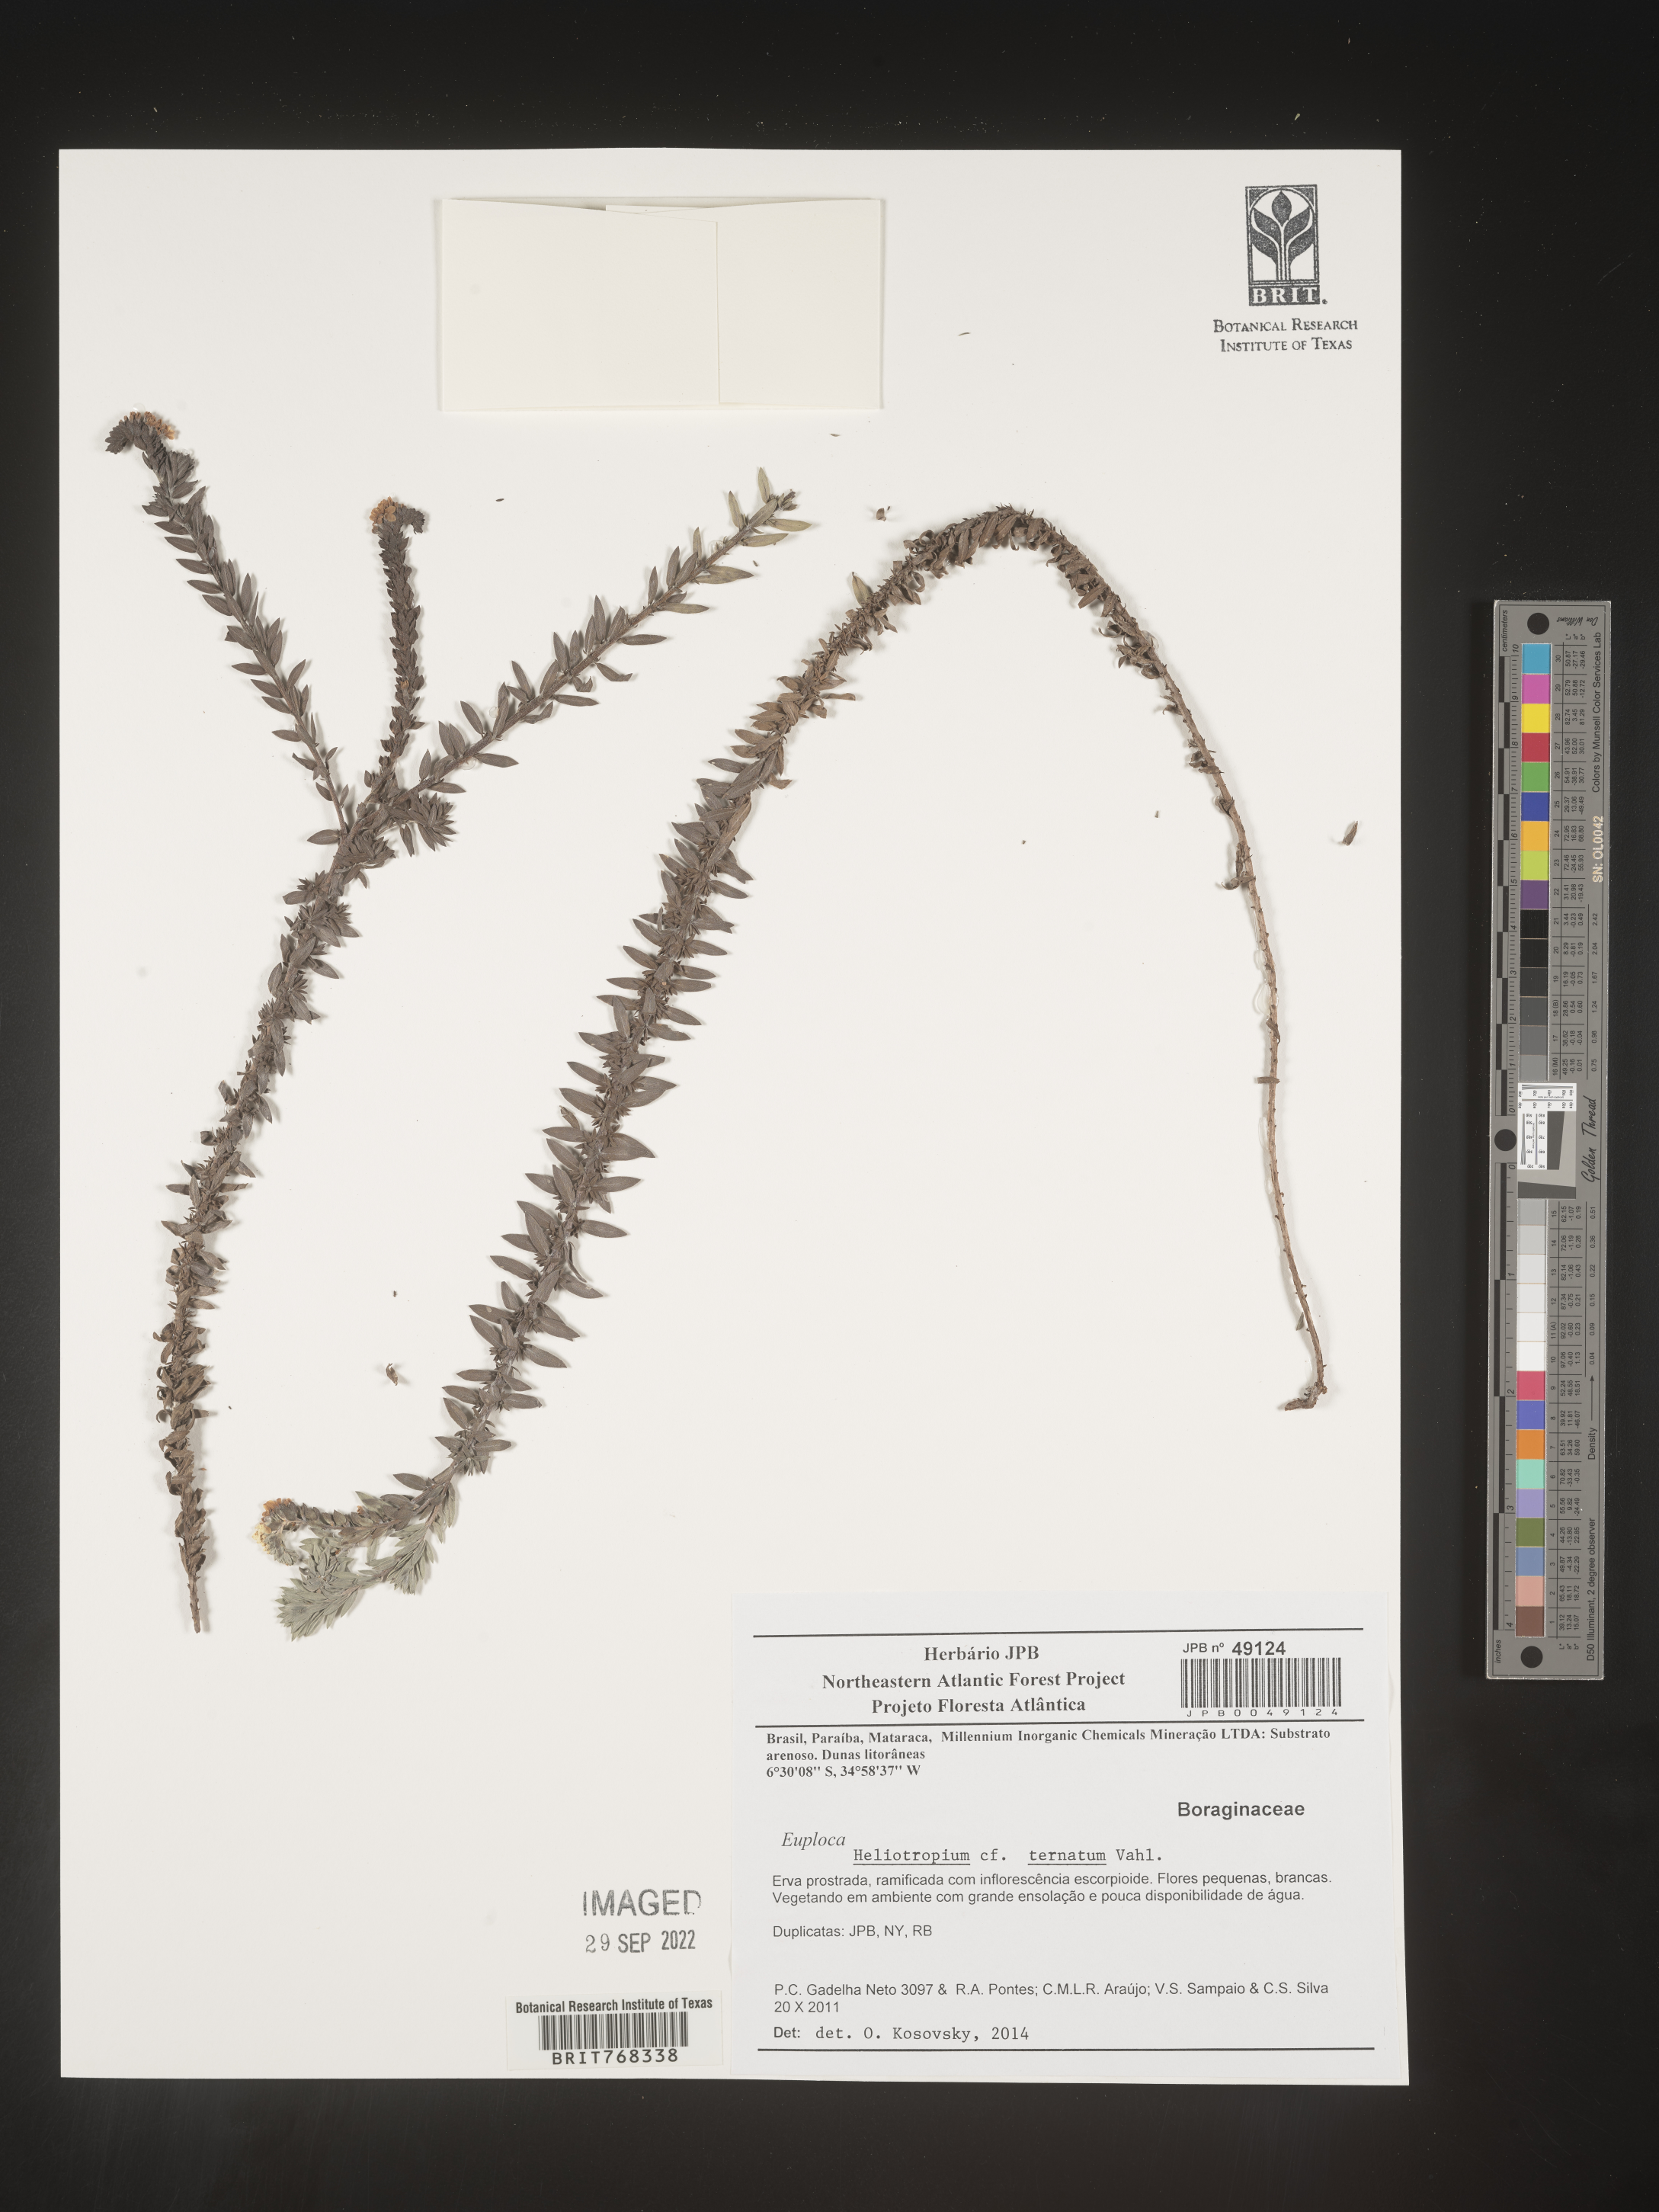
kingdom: Plantae
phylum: Tracheophyta
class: Magnoliopsida
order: Boraginales
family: Heliotropiaceae
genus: Heliotropium
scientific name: Heliotropium
